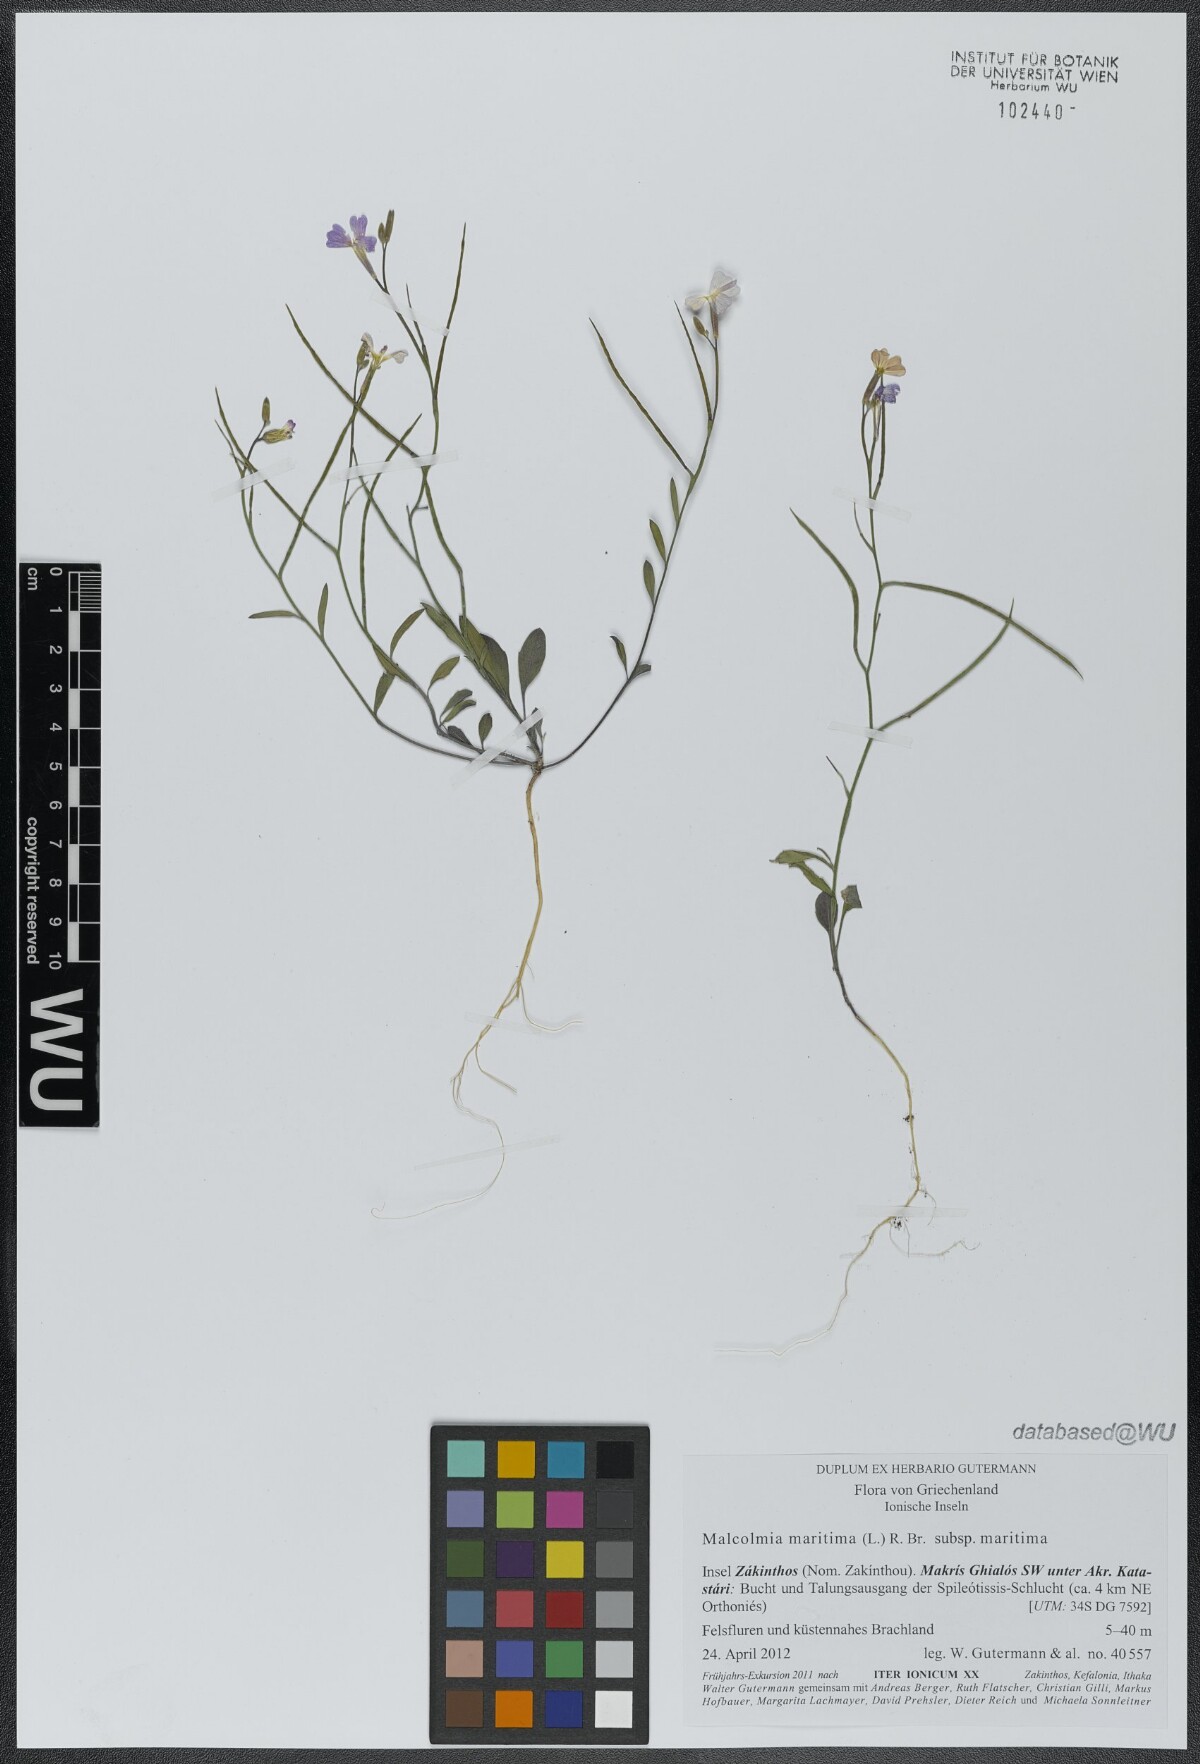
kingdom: Plantae
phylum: Tracheophyta
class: Magnoliopsida
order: Brassicales
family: Brassicaceae
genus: Malcolmia
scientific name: Malcolmia maritima
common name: Virginia stock
